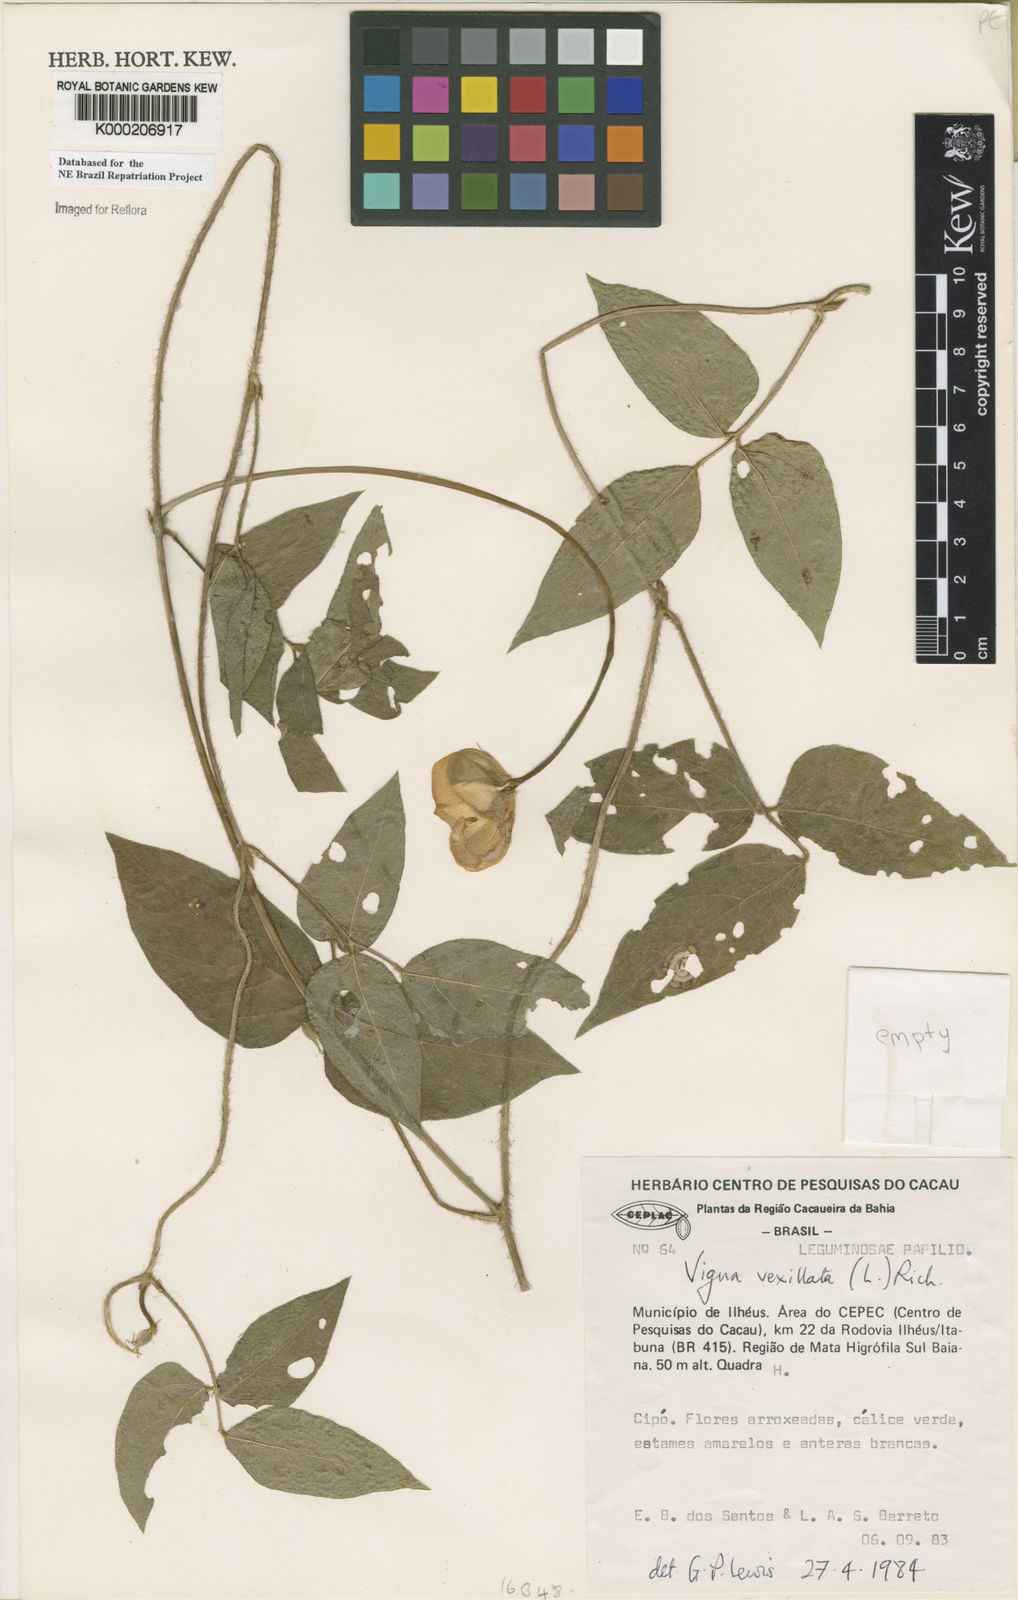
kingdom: Plantae
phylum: Tracheophyta
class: Magnoliopsida
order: Fabales
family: Fabaceae
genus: Vigna
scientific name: Vigna vexillata
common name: Zombi pea
